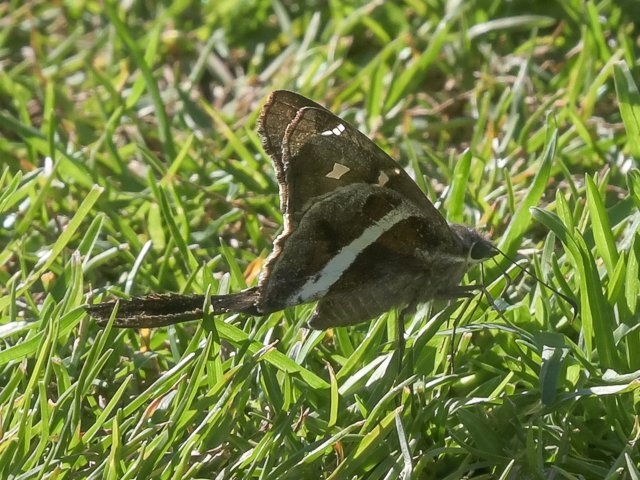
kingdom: Animalia
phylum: Arthropoda
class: Insecta
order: Lepidoptera
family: Hesperiidae
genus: Chioides
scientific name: Chioides catillus
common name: White-striped Longtail
